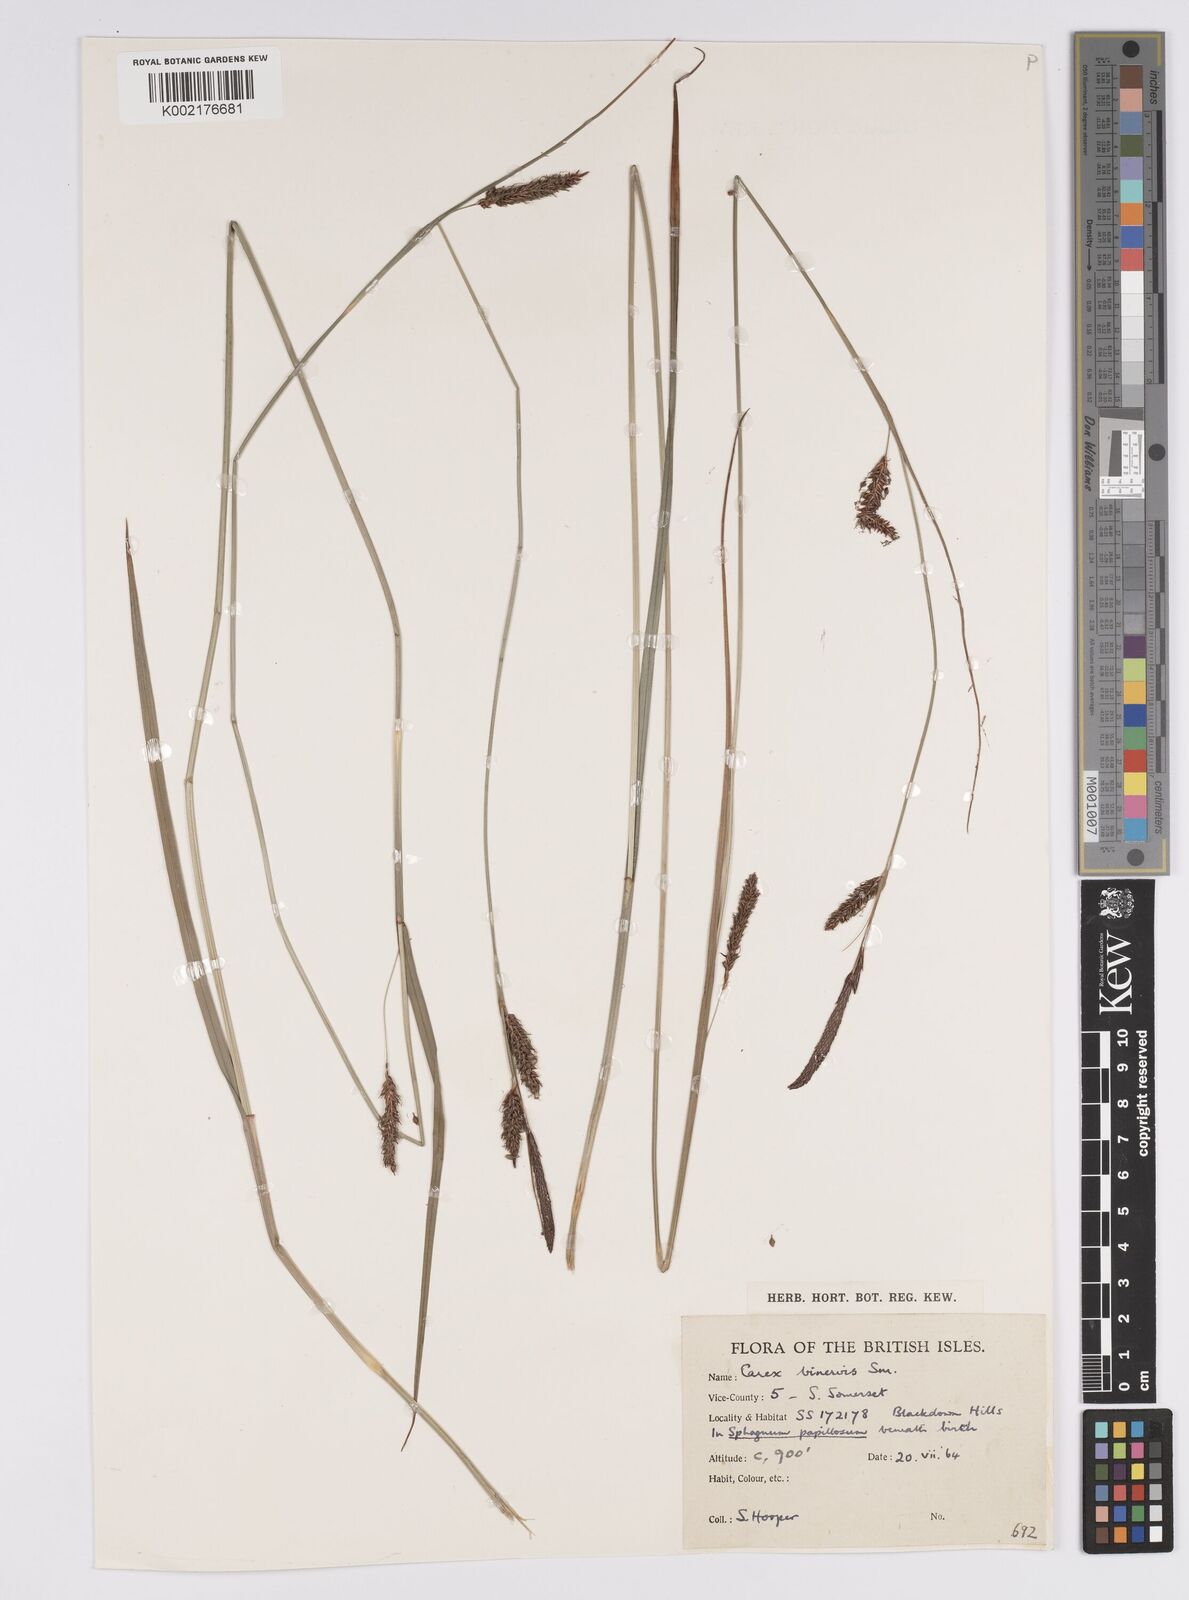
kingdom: Plantae
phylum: Tracheophyta
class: Liliopsida
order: Poales
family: Cyperaceae
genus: Carex
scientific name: Carex binervis
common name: Green-ribbed sedge
